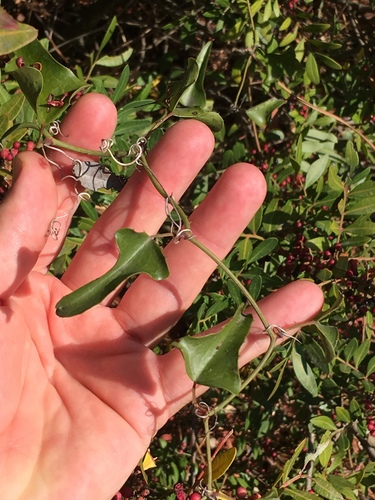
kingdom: Plantae
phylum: Tracheophyta
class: Liliopsida
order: Liliales
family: Smilacaceae
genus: Smilax
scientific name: Smilax aspera
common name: Common smilax
